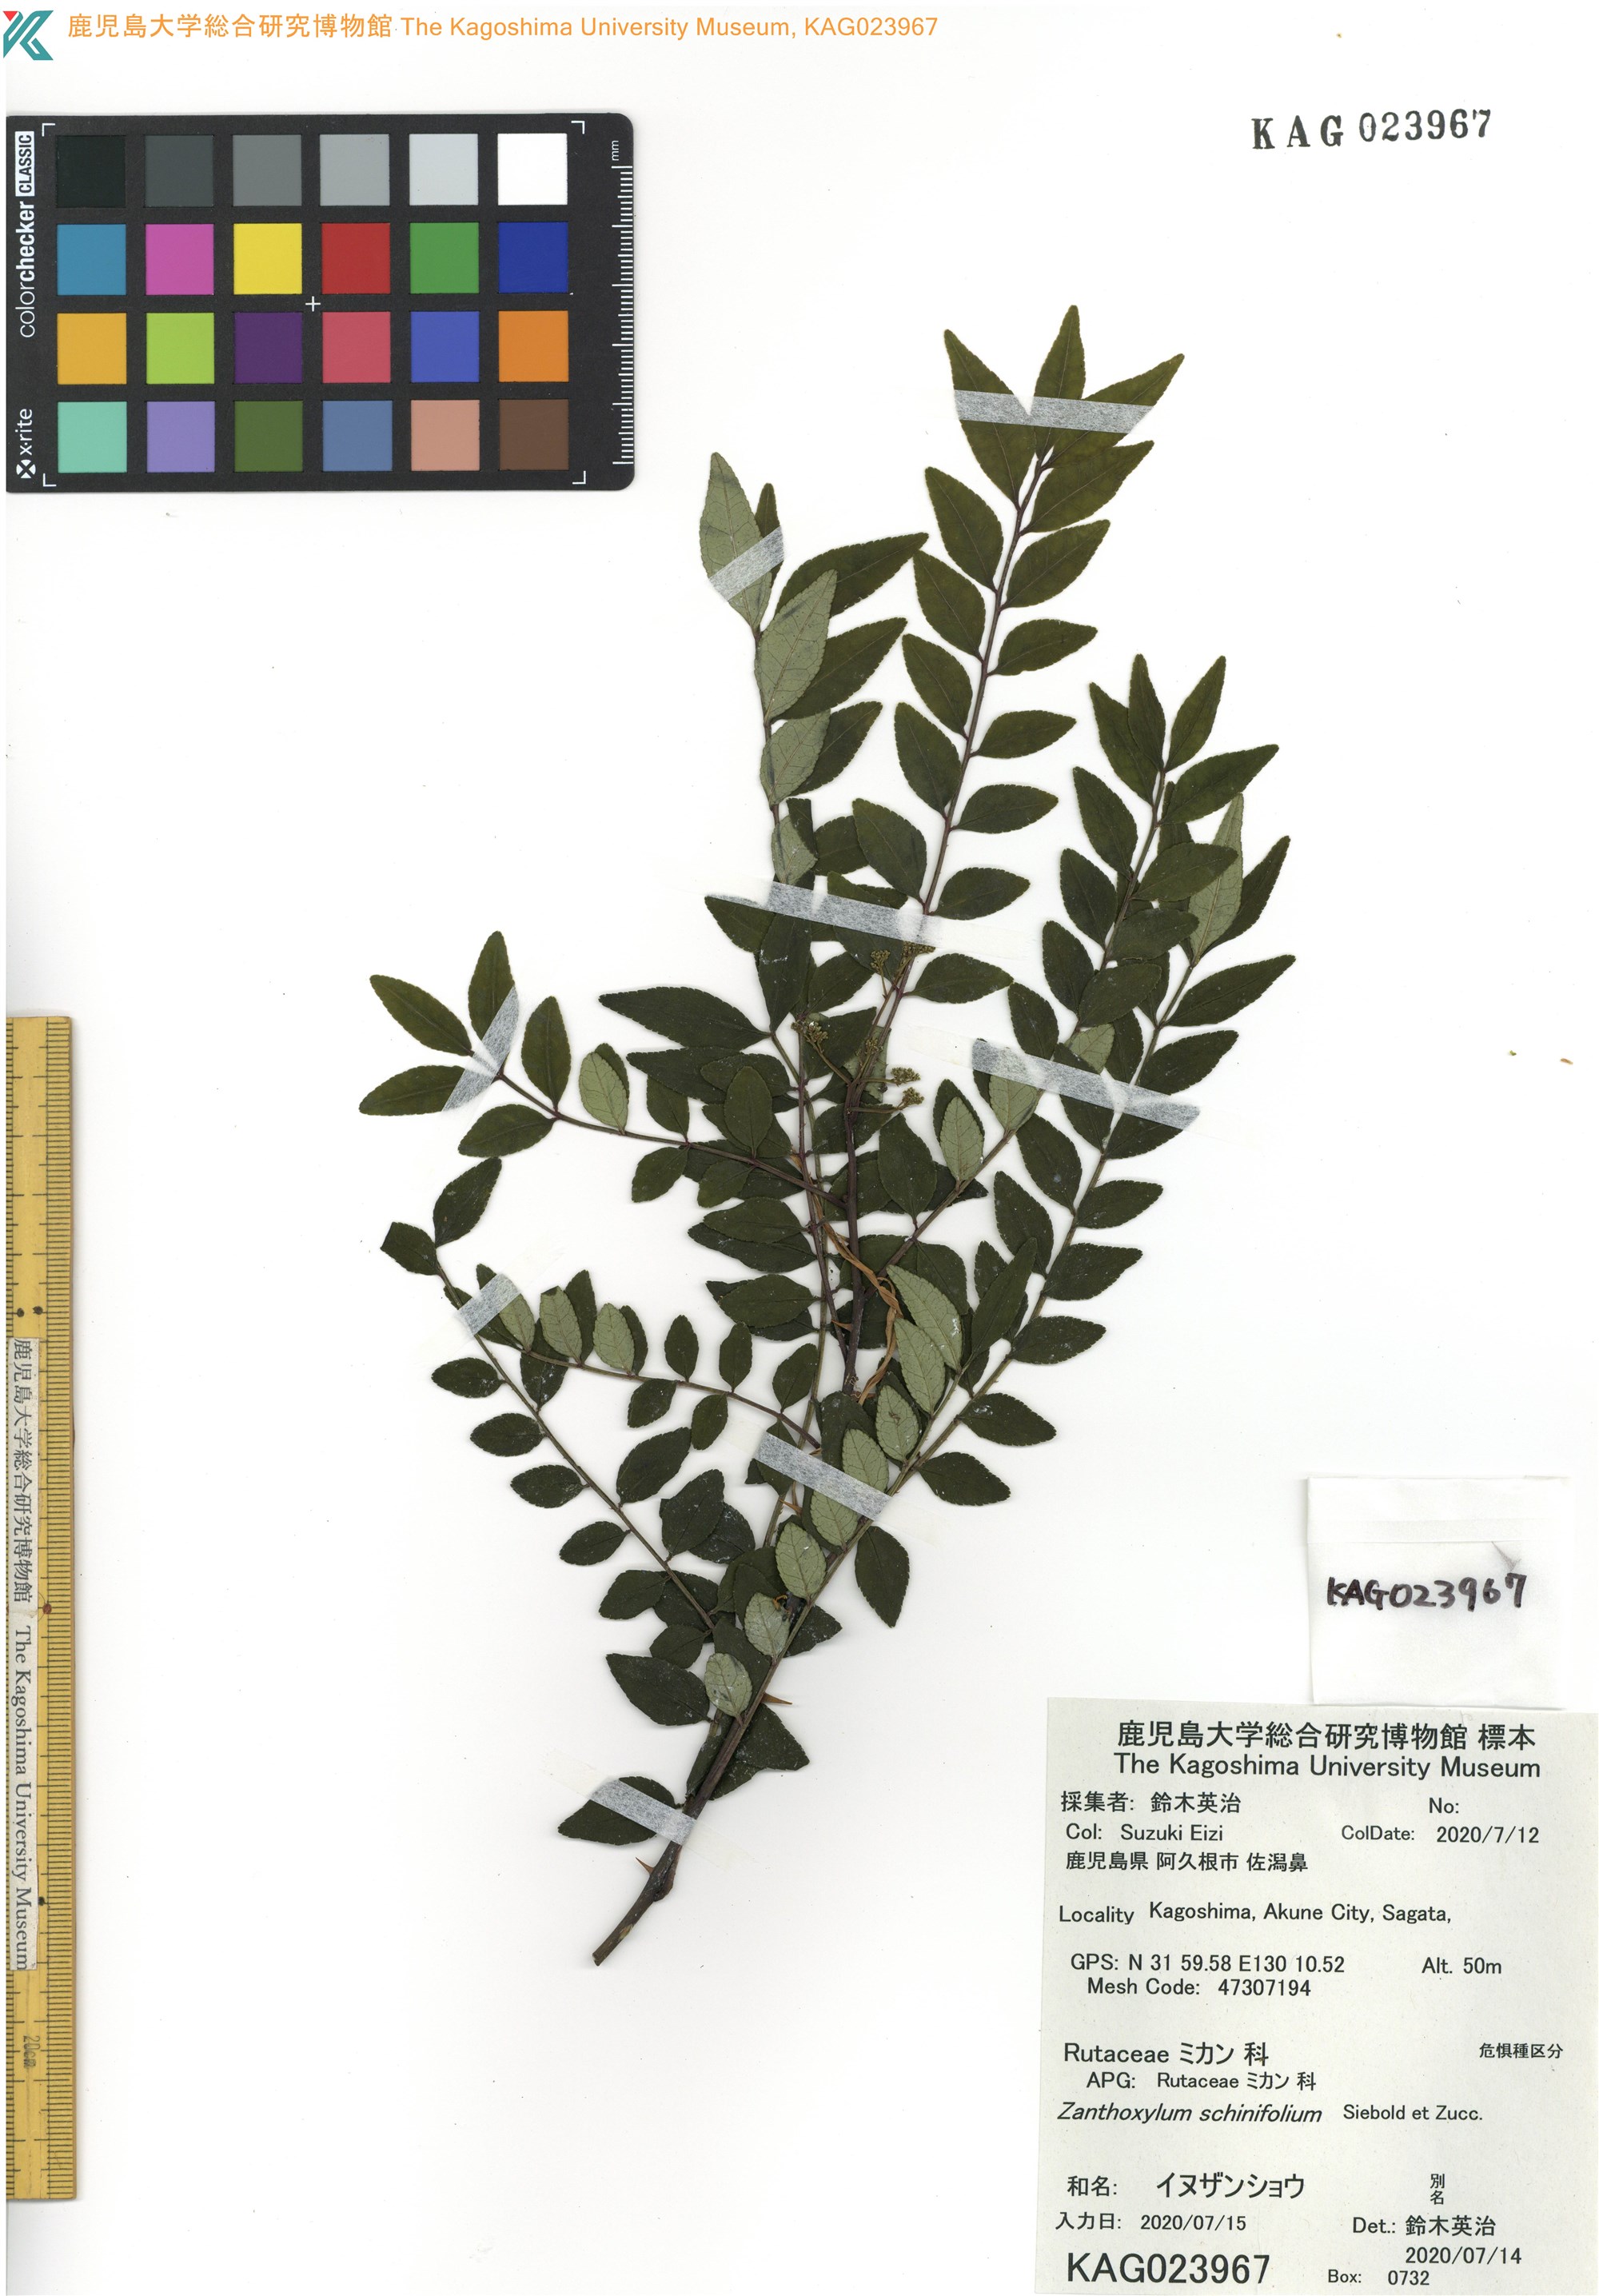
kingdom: Plantae
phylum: Tracheophyta
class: Magnoliopsida
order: Sapindales
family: Rutaceae
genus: Zanthoxylum
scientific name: Zanthoxylum schinifolium
